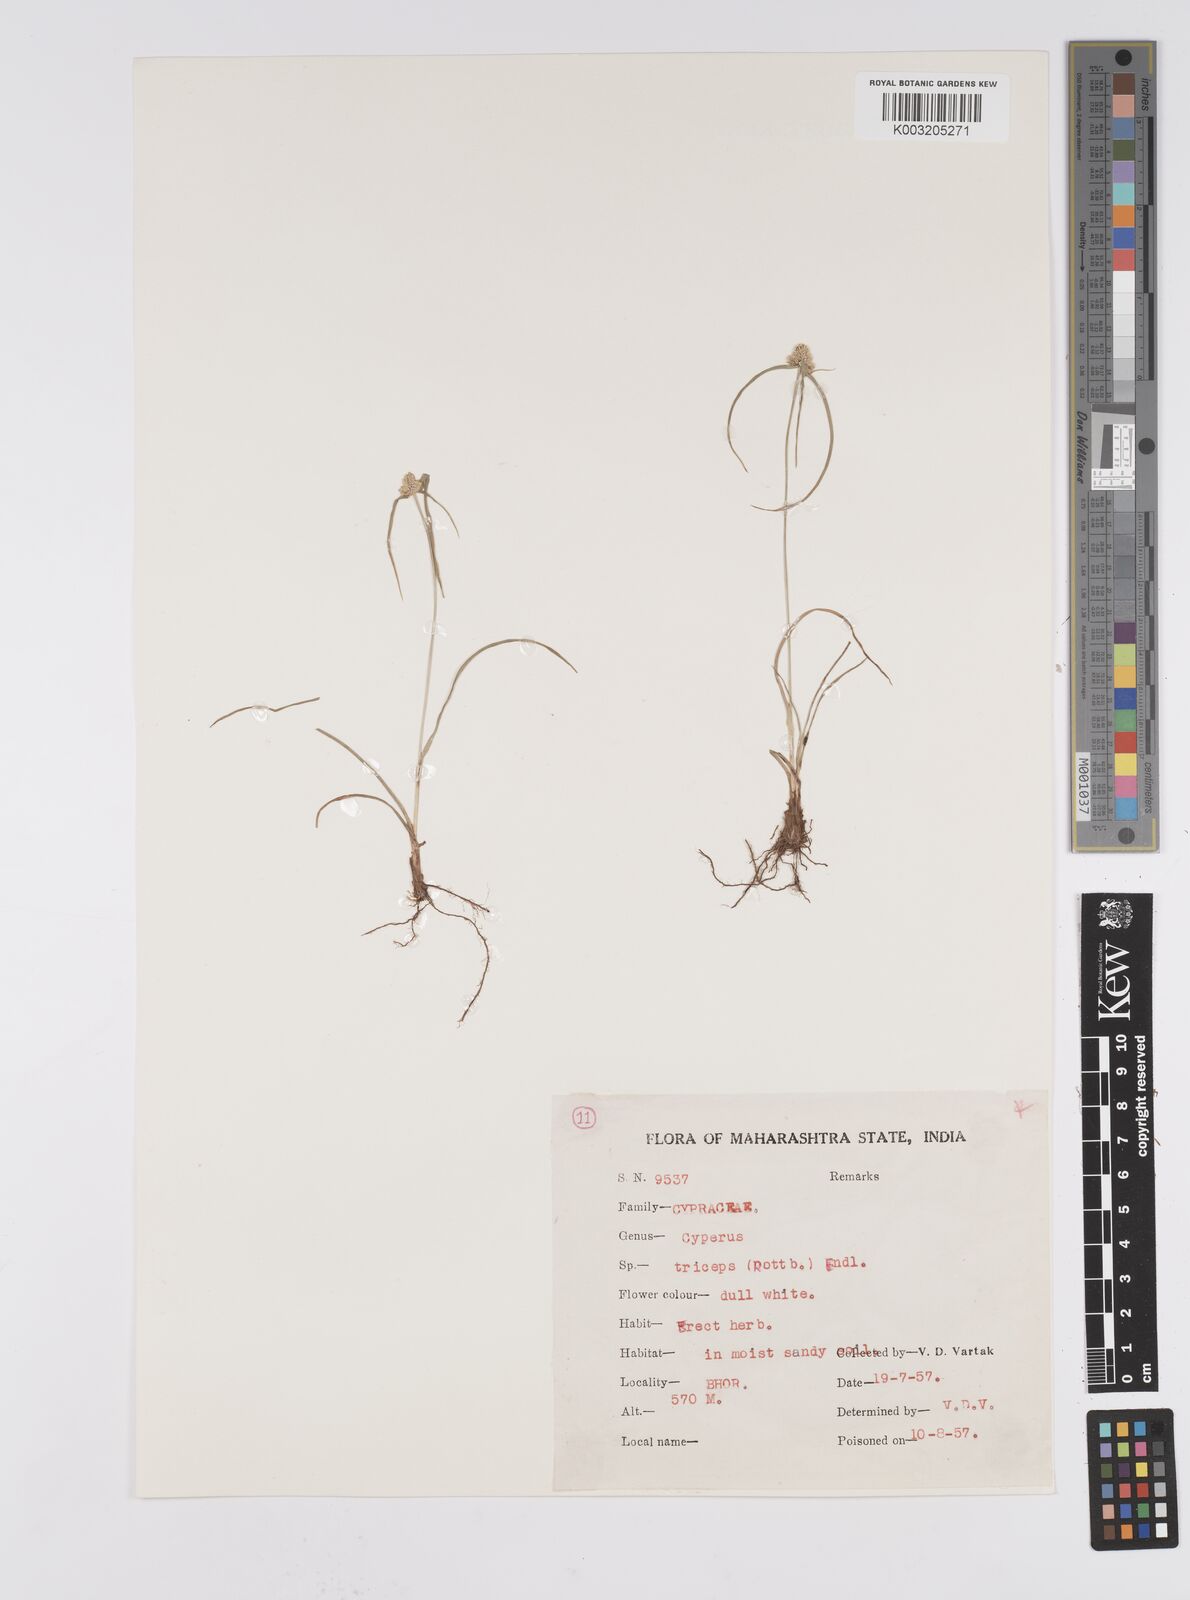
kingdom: Plantae
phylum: Tracheophyta
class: Liliopsida
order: Poales
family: Cyperaceae
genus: Cyperus
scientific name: Cyperus
